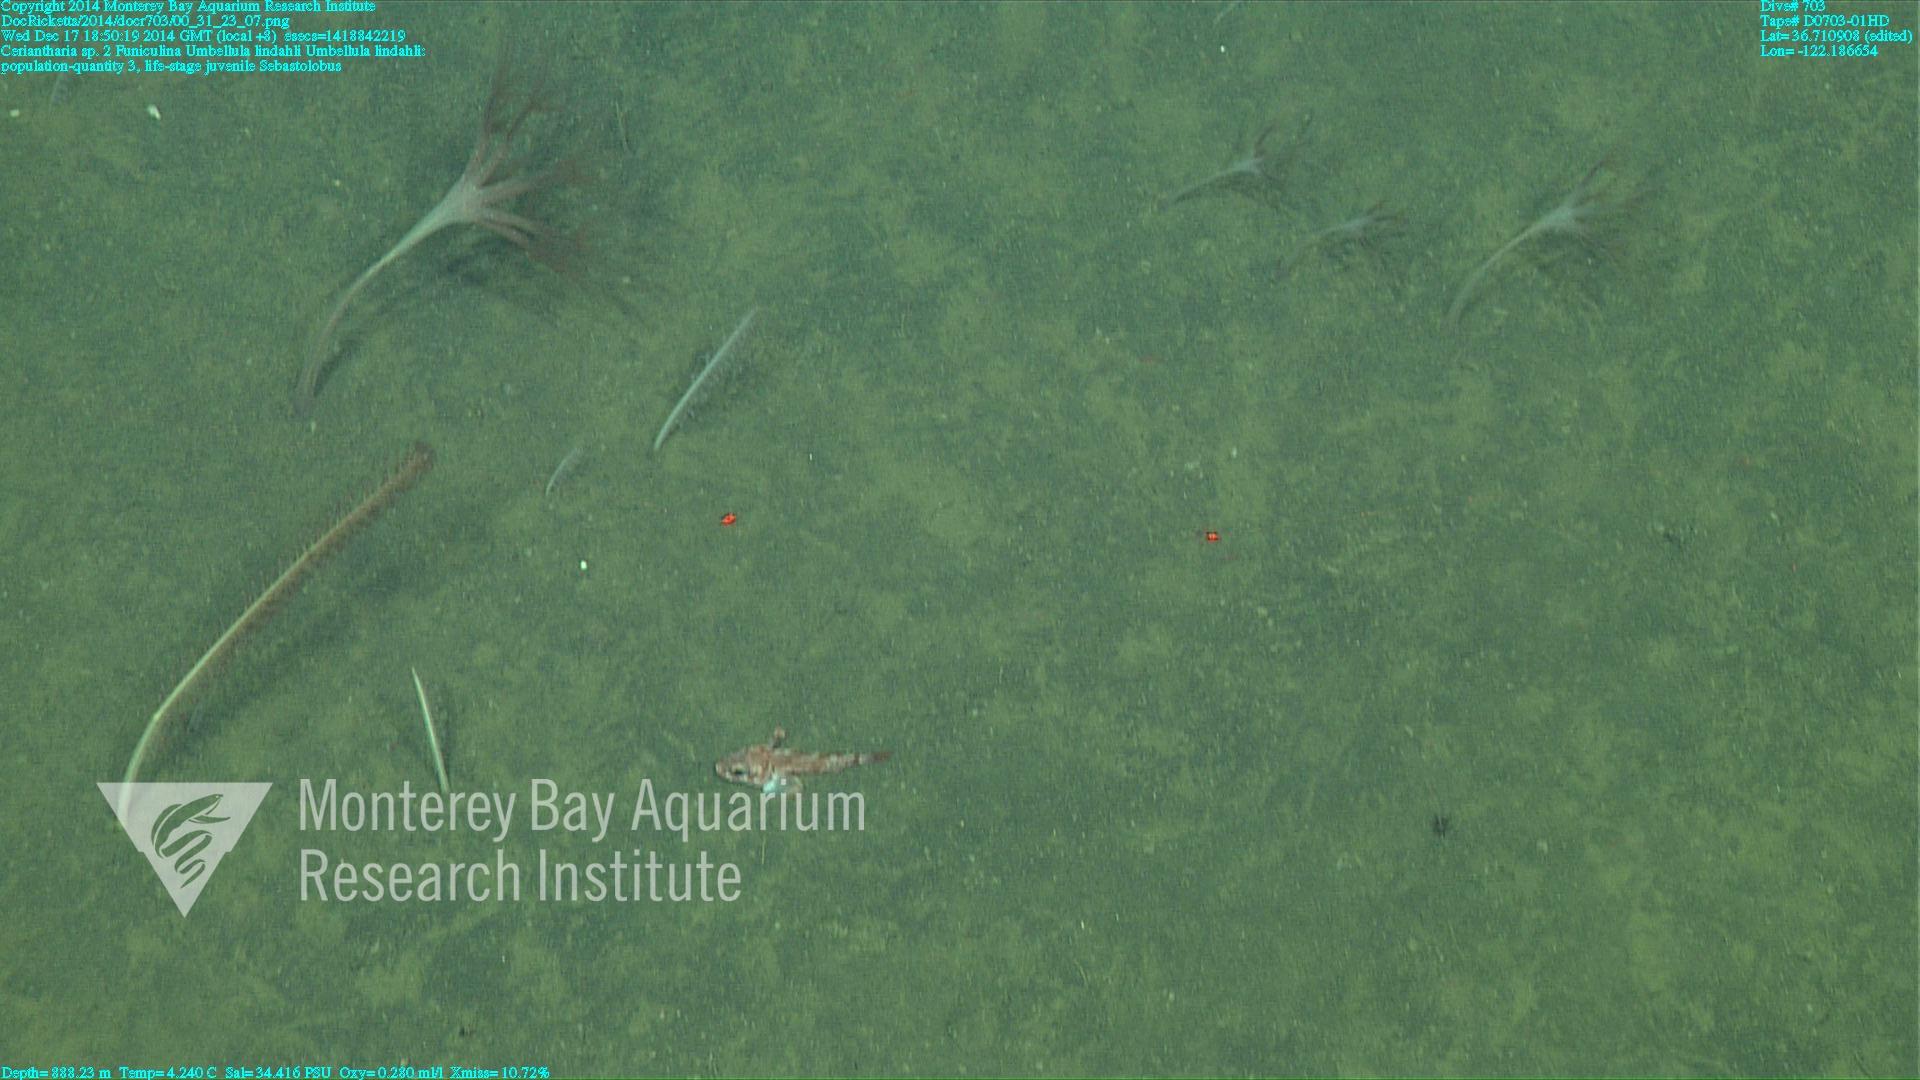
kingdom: Animalia
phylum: Cnidaria
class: Anthozoa
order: Scleralcyonacea
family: Umbellulidae
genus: Umbellula
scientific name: Umbellula lindahli
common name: Lindahl's droopy sea pen
